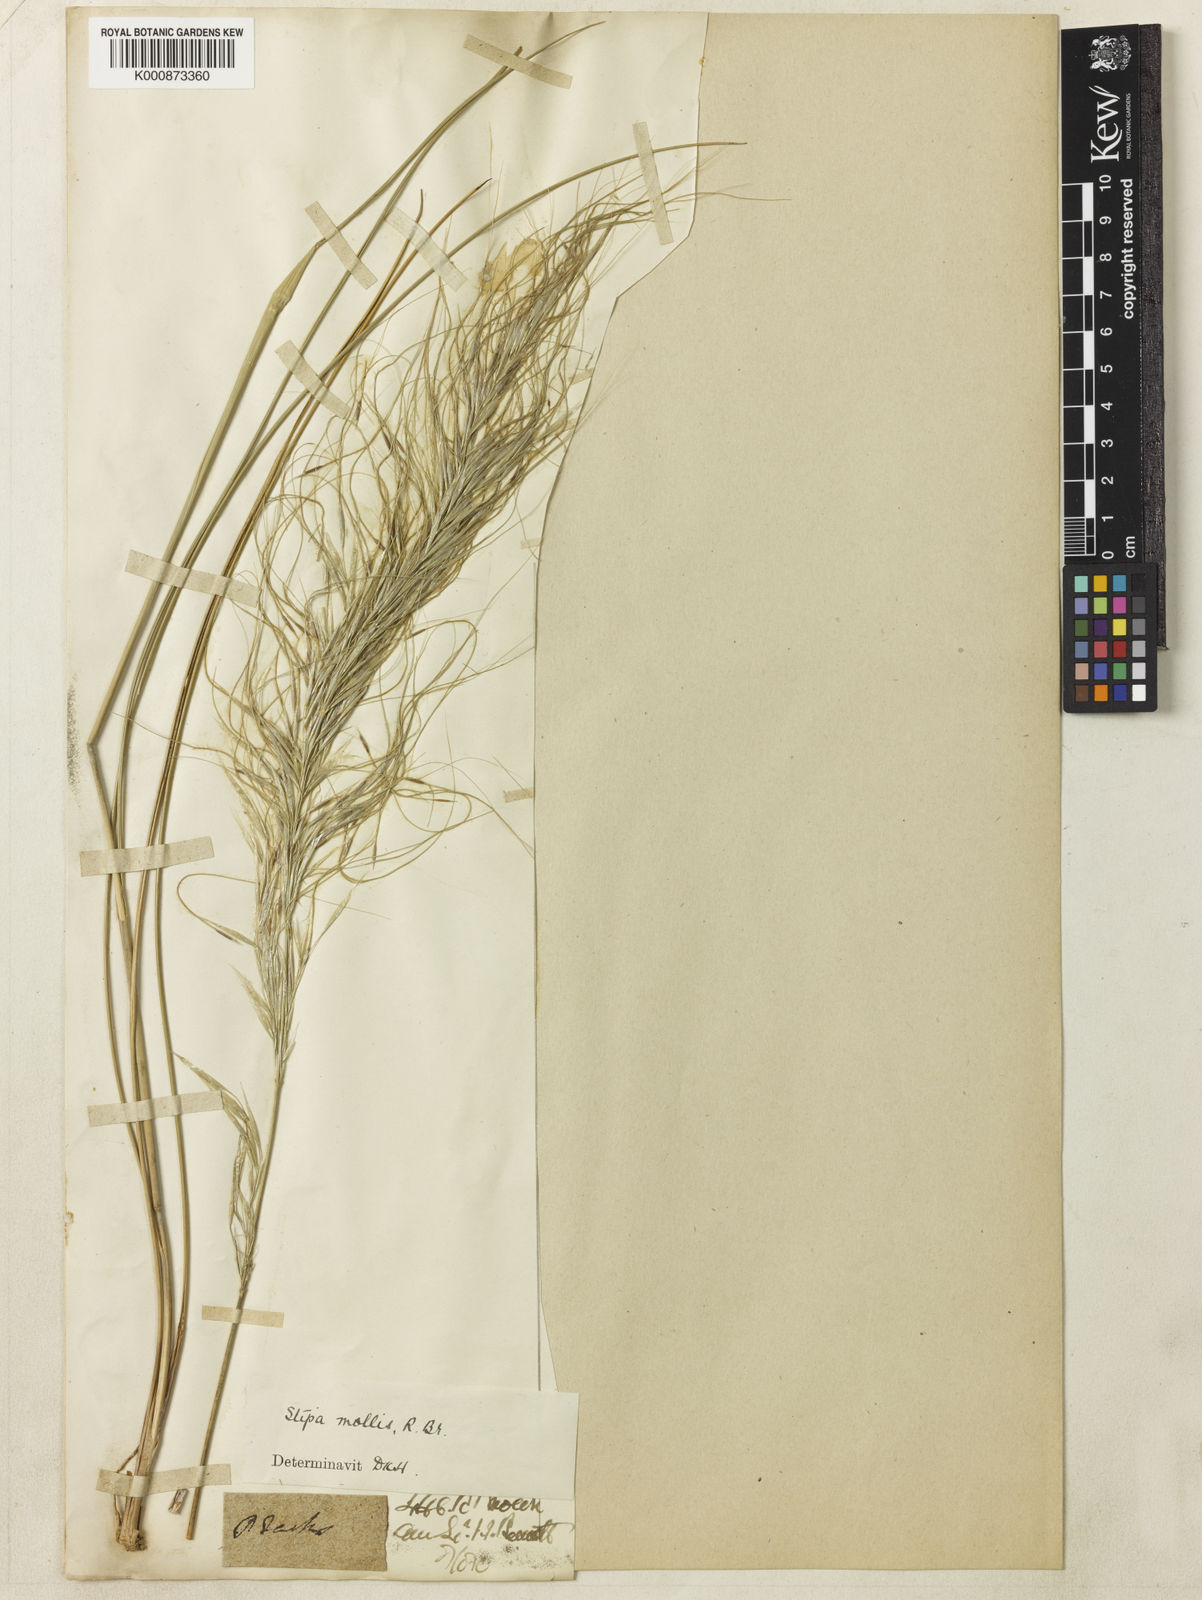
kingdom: Plantae
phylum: Tracheophyta
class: Liliopsida
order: Poales
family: Poaceae
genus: Austrostipa
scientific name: Austrostipa mollis
